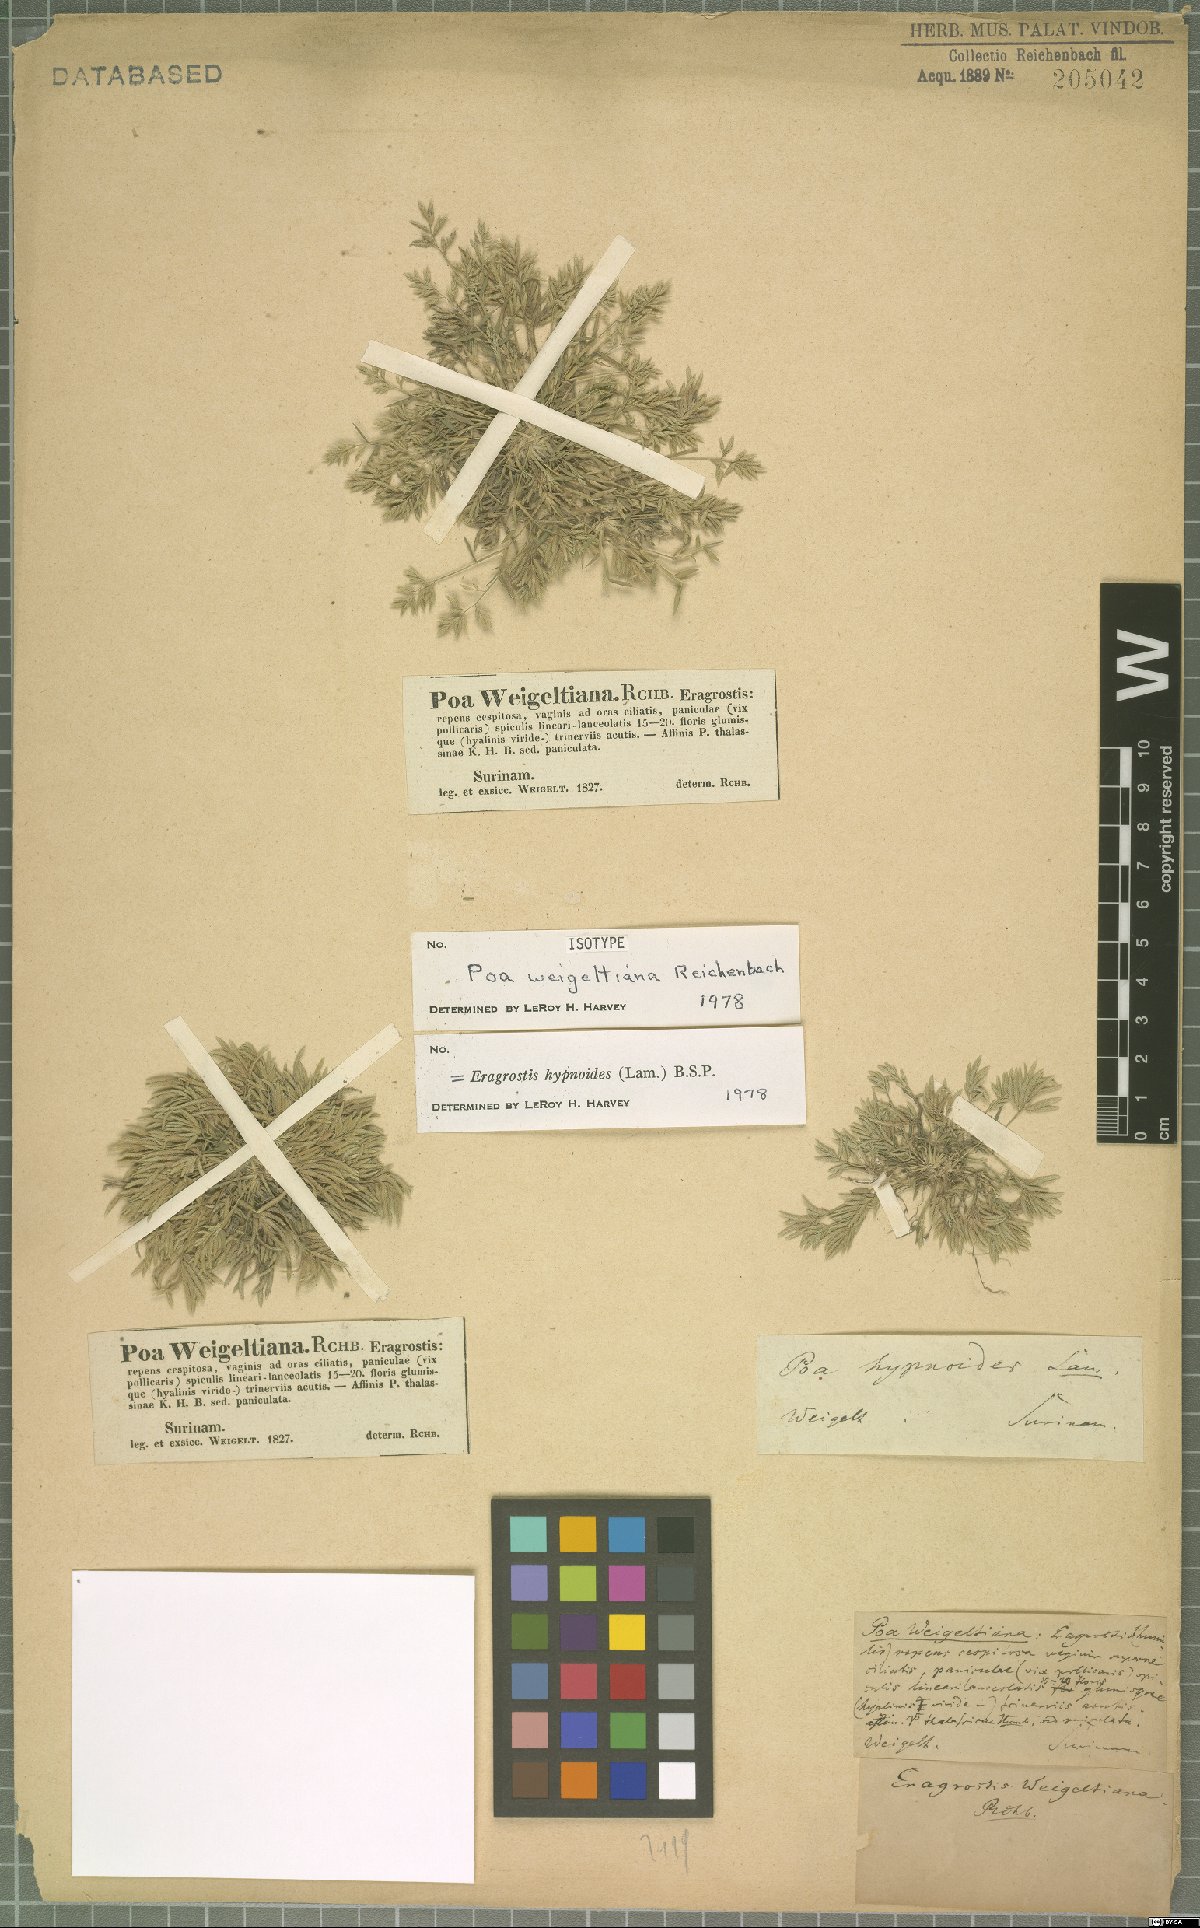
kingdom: Plantae
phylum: Tracheophyta
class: Liliopsida
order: Poales
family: Poaceae
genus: Eragrostis
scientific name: Eragrostis hypnoides
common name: Creeping love grass
